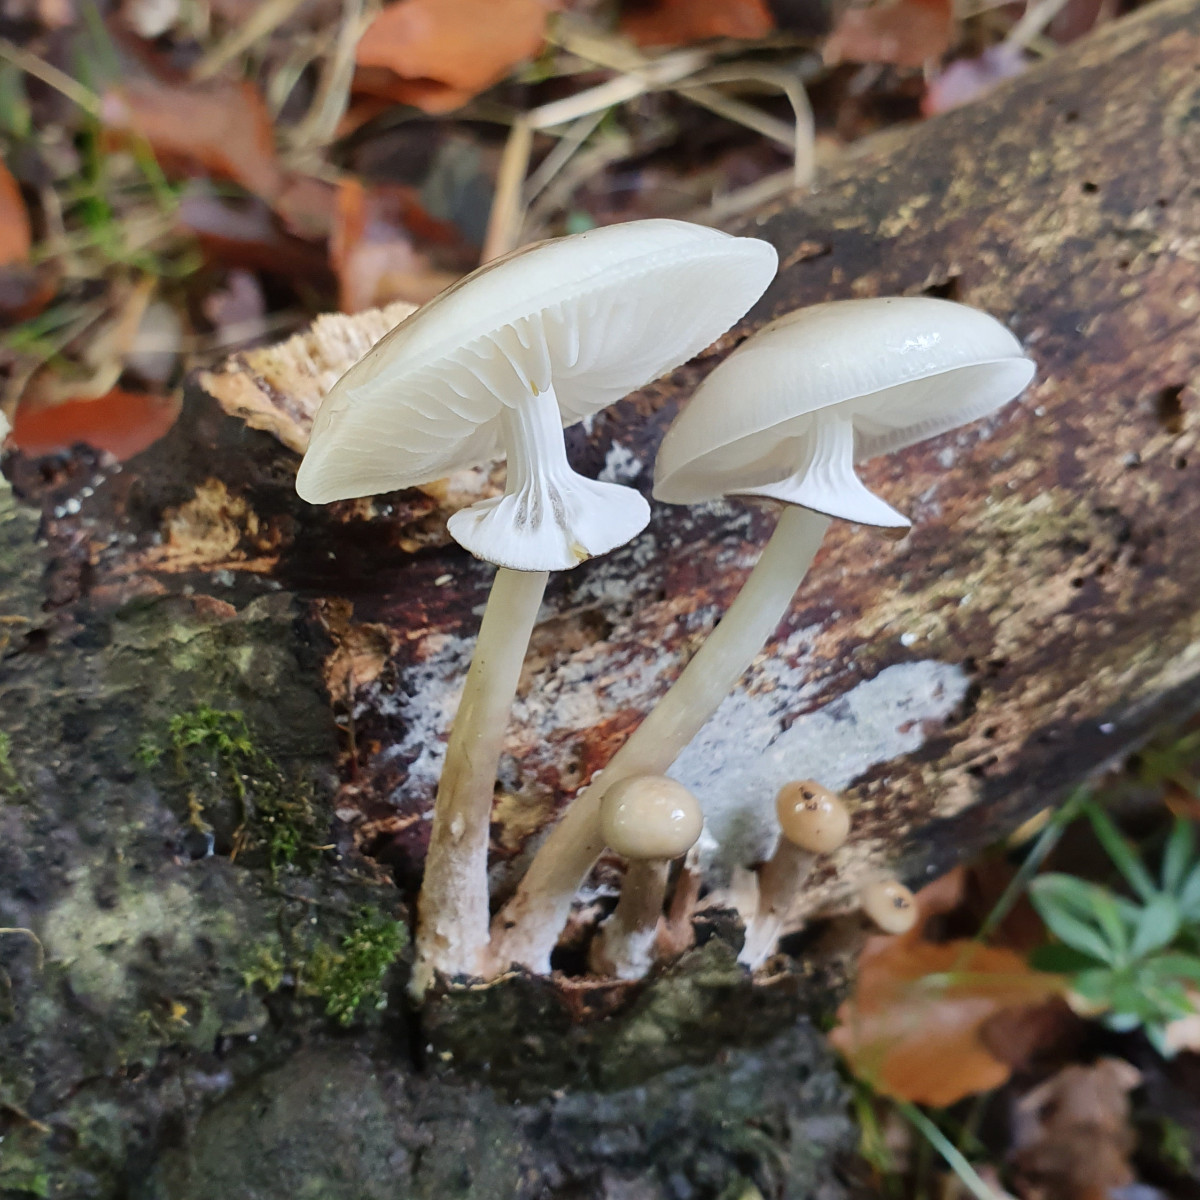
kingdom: Fungi
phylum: Basidiomycota
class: Agaricomycetes
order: Agaricales
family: Physalacriaceae
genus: Mucidula
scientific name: Mucidula mucida
